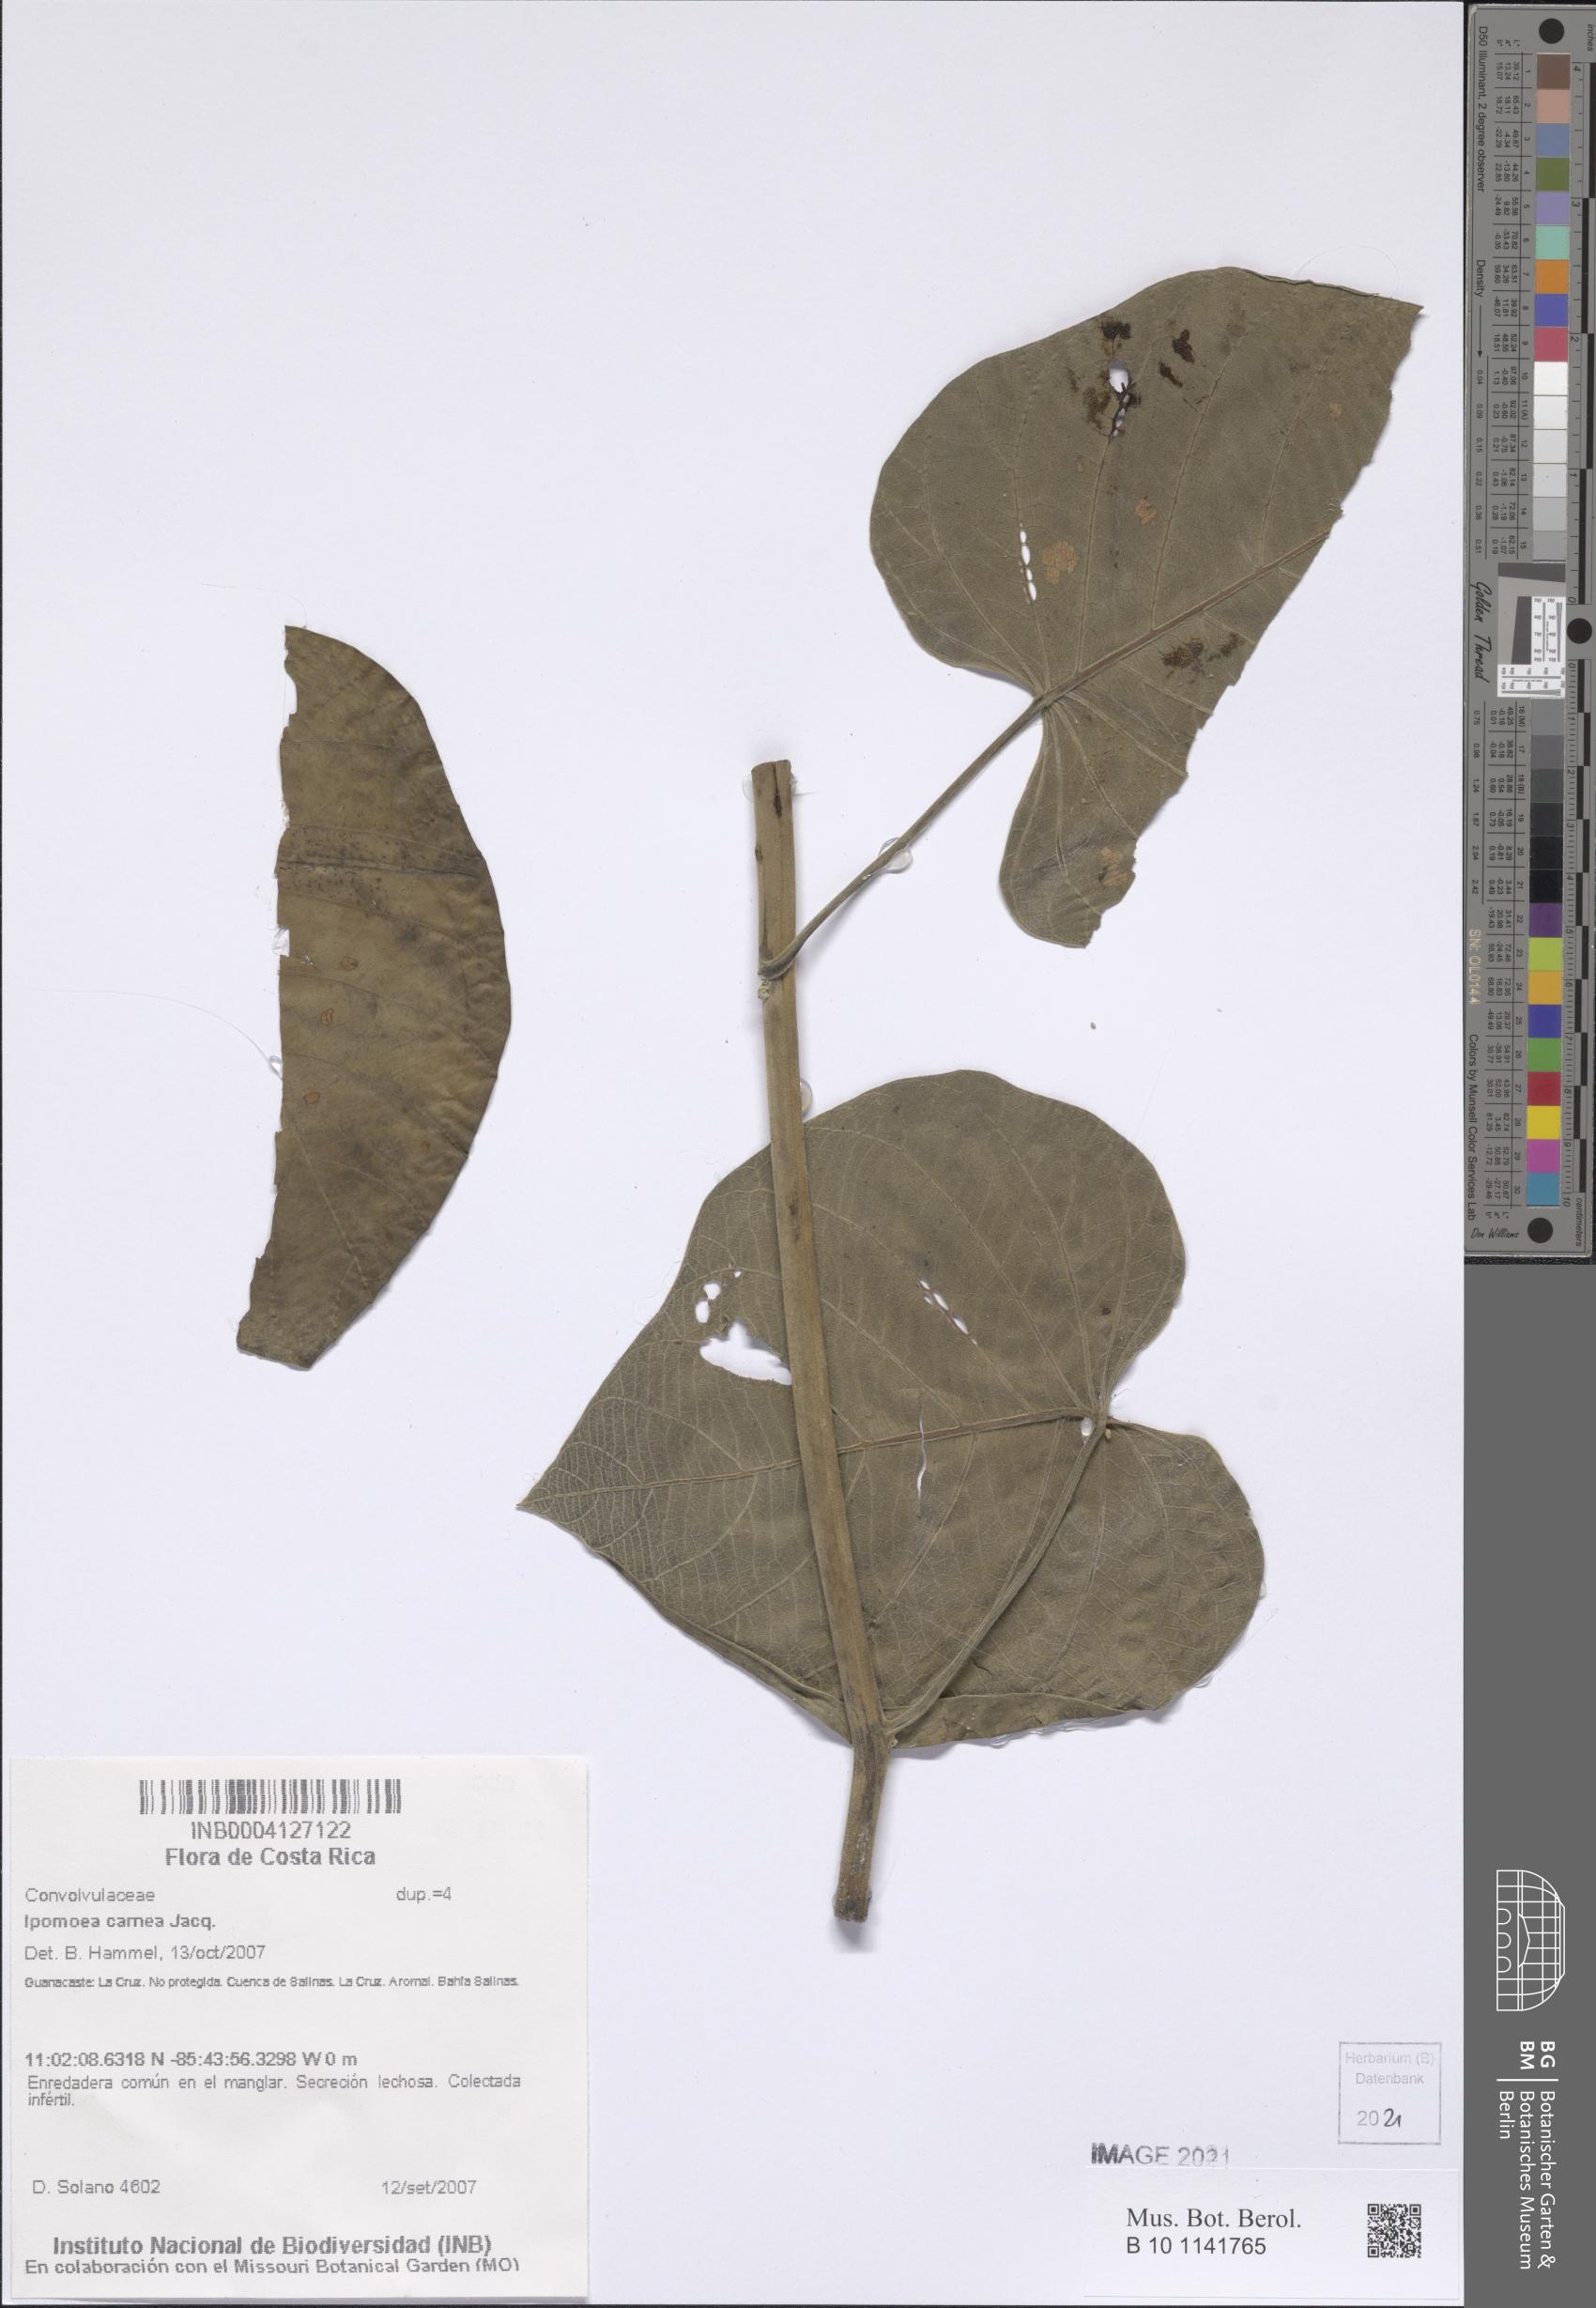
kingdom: Plantae
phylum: Tracheophyta
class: Magnoliopsida
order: Solanales
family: Convolvulaceae
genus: Ipomoea
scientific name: Ipomoea carnea
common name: Morning-glory
